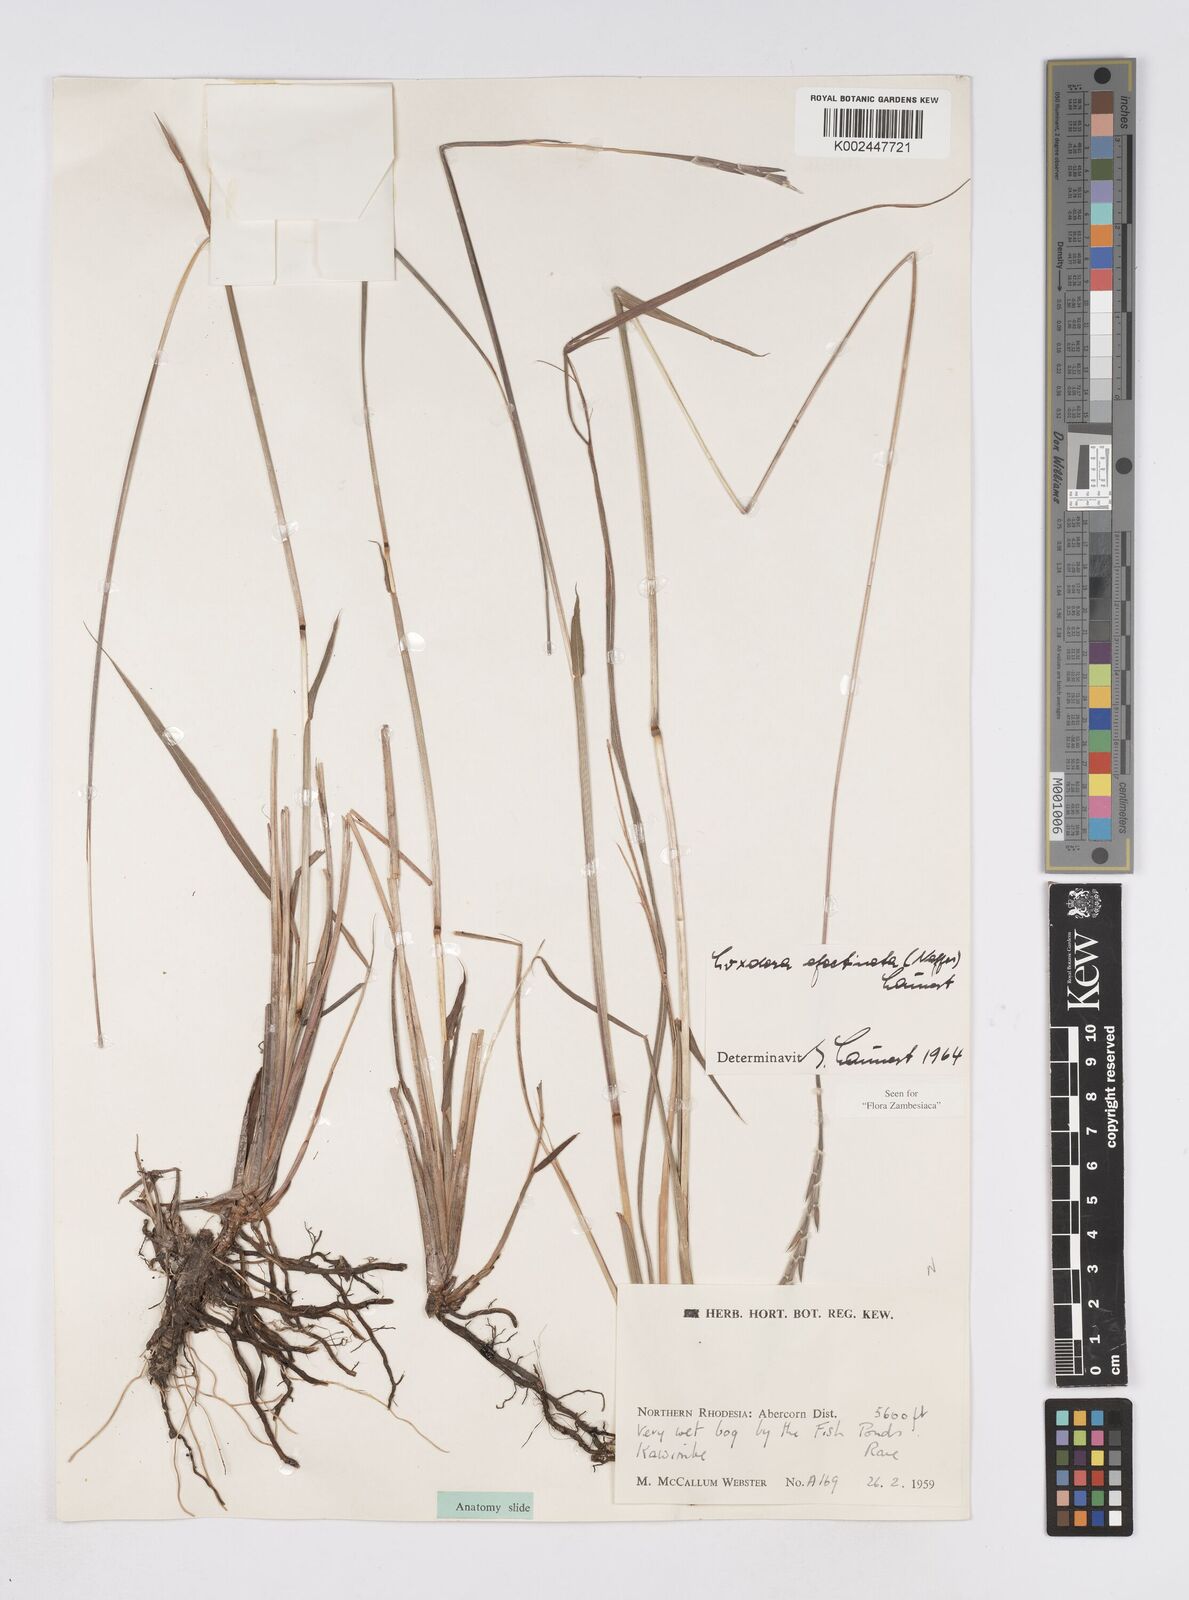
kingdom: Plantae
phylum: Tracheophyta
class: Liliopsida
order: Poales
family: Poaceae
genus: Loxodera
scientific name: Loxodera caespitosa
